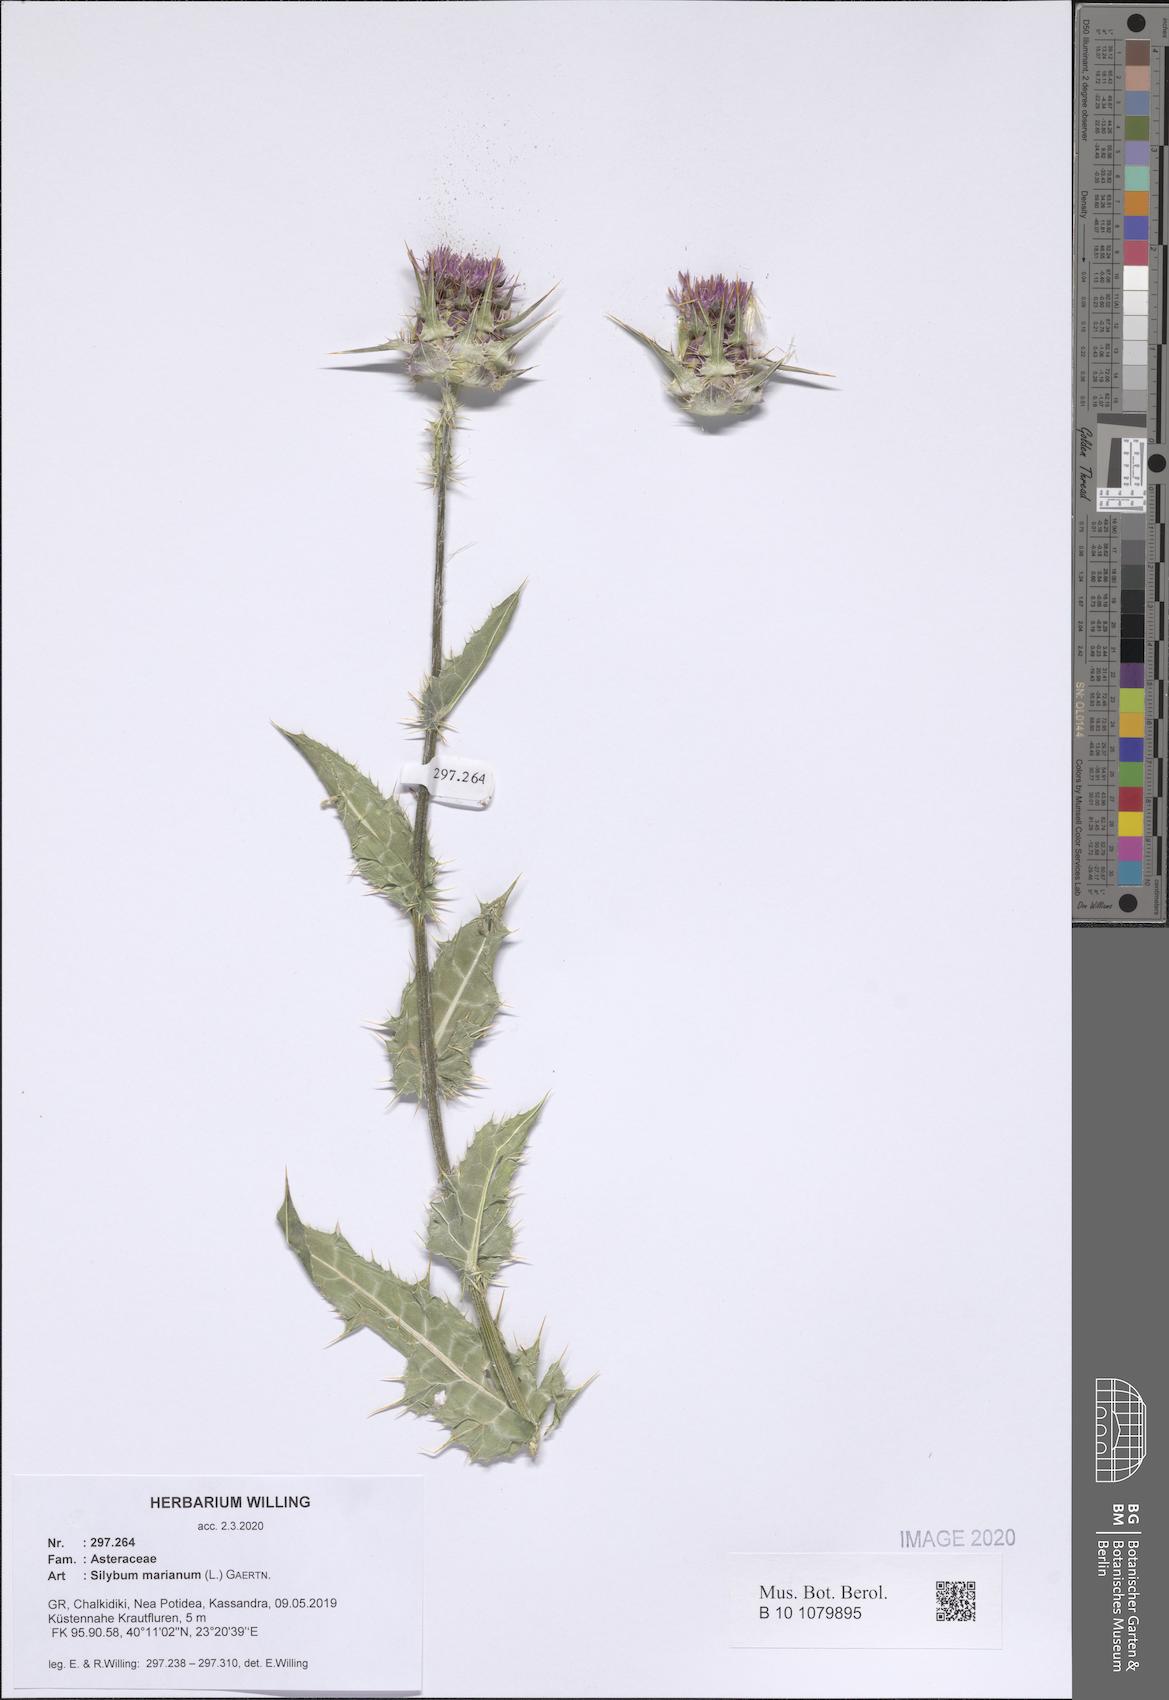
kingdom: Plantae
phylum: Tracheophyta
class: Magnoliopsida
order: Asterales
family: Asteraceae
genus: Silybum
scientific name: Silybum marianum
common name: Milk thistle
